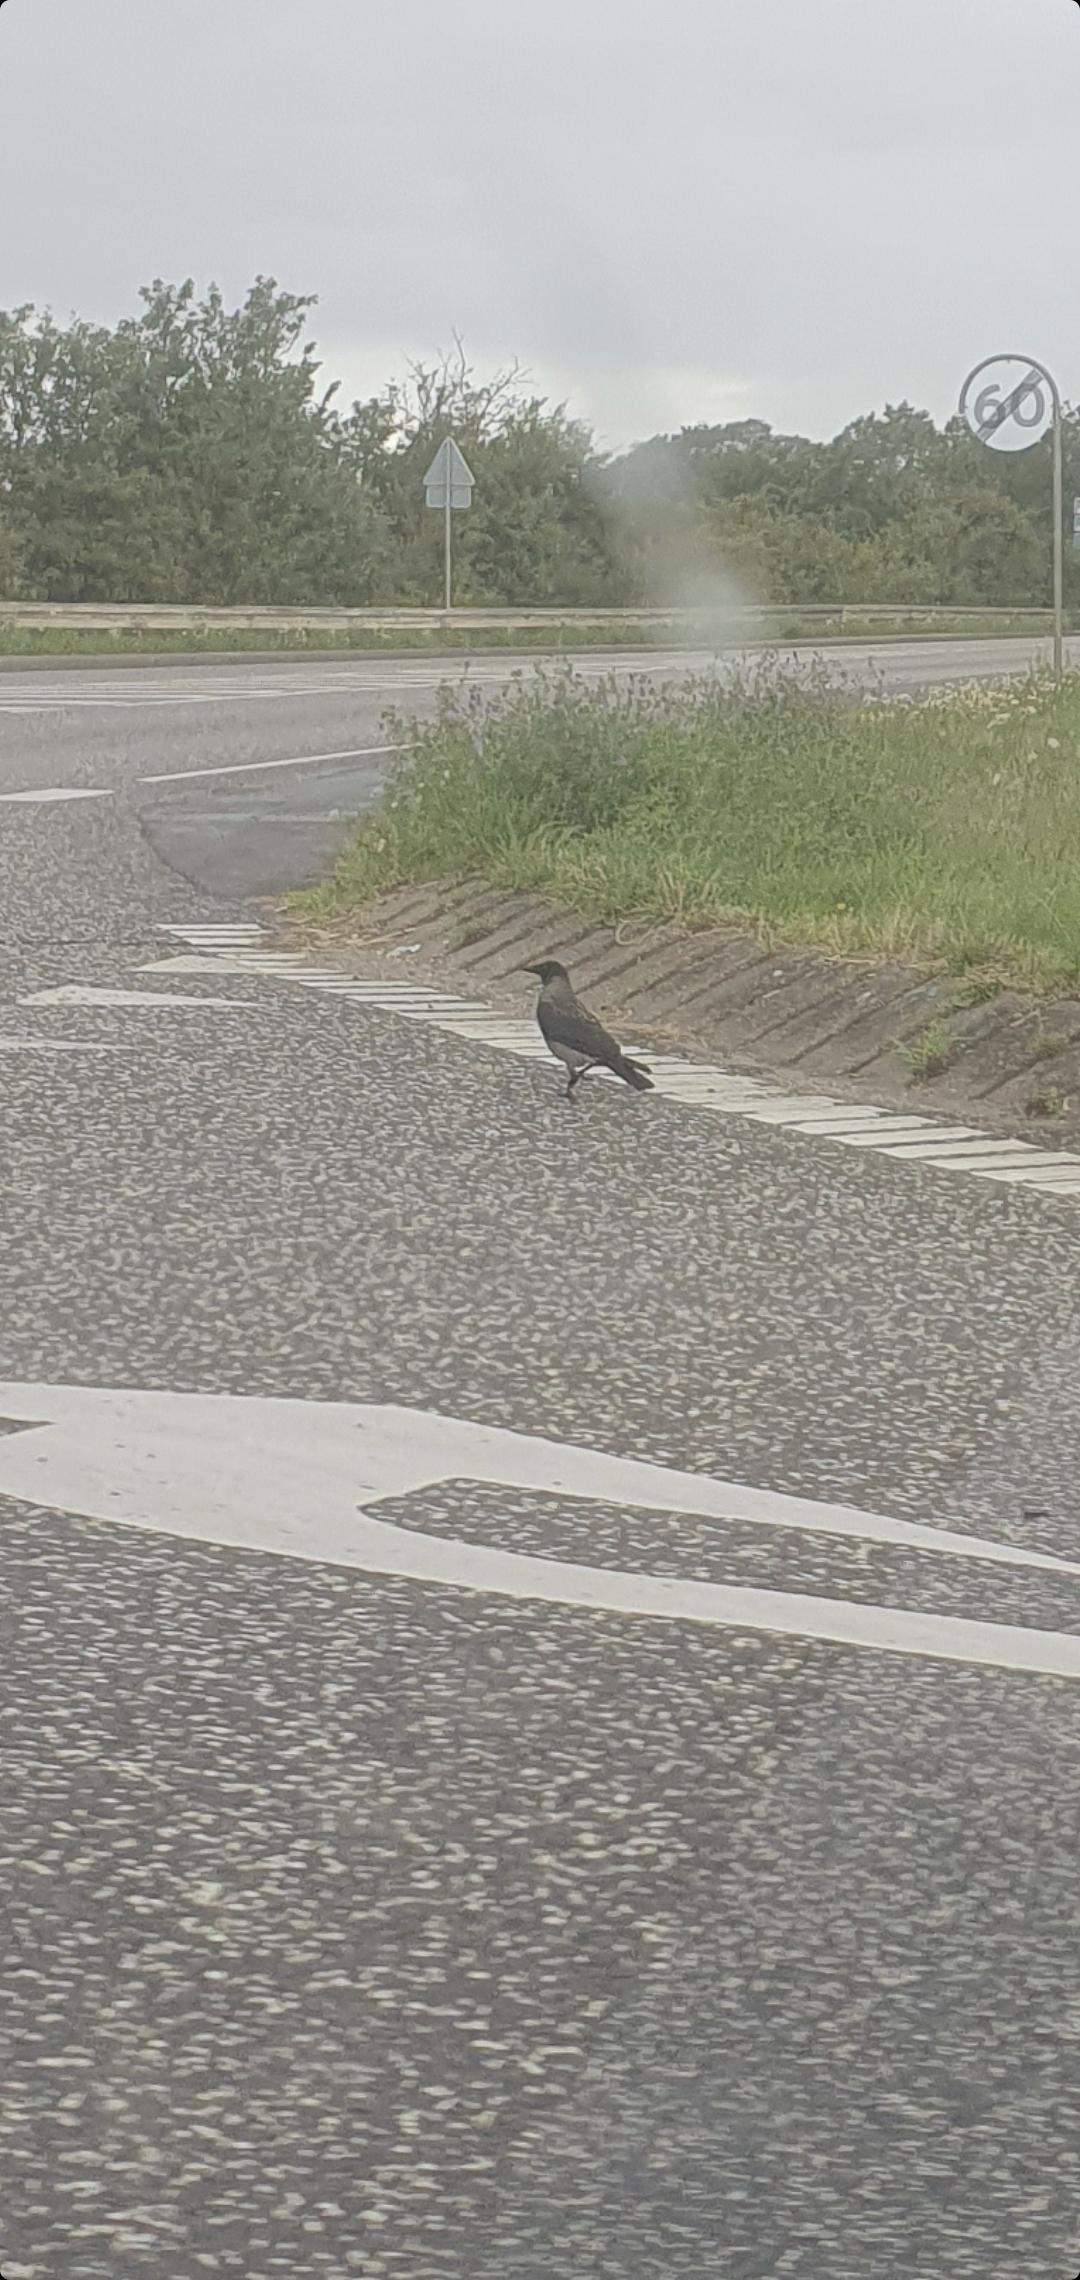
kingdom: Animalia
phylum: Chordata
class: Aves
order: Passeriformes
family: Corvidae
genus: Corvus
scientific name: Corvus cornix
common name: Gråkrage
